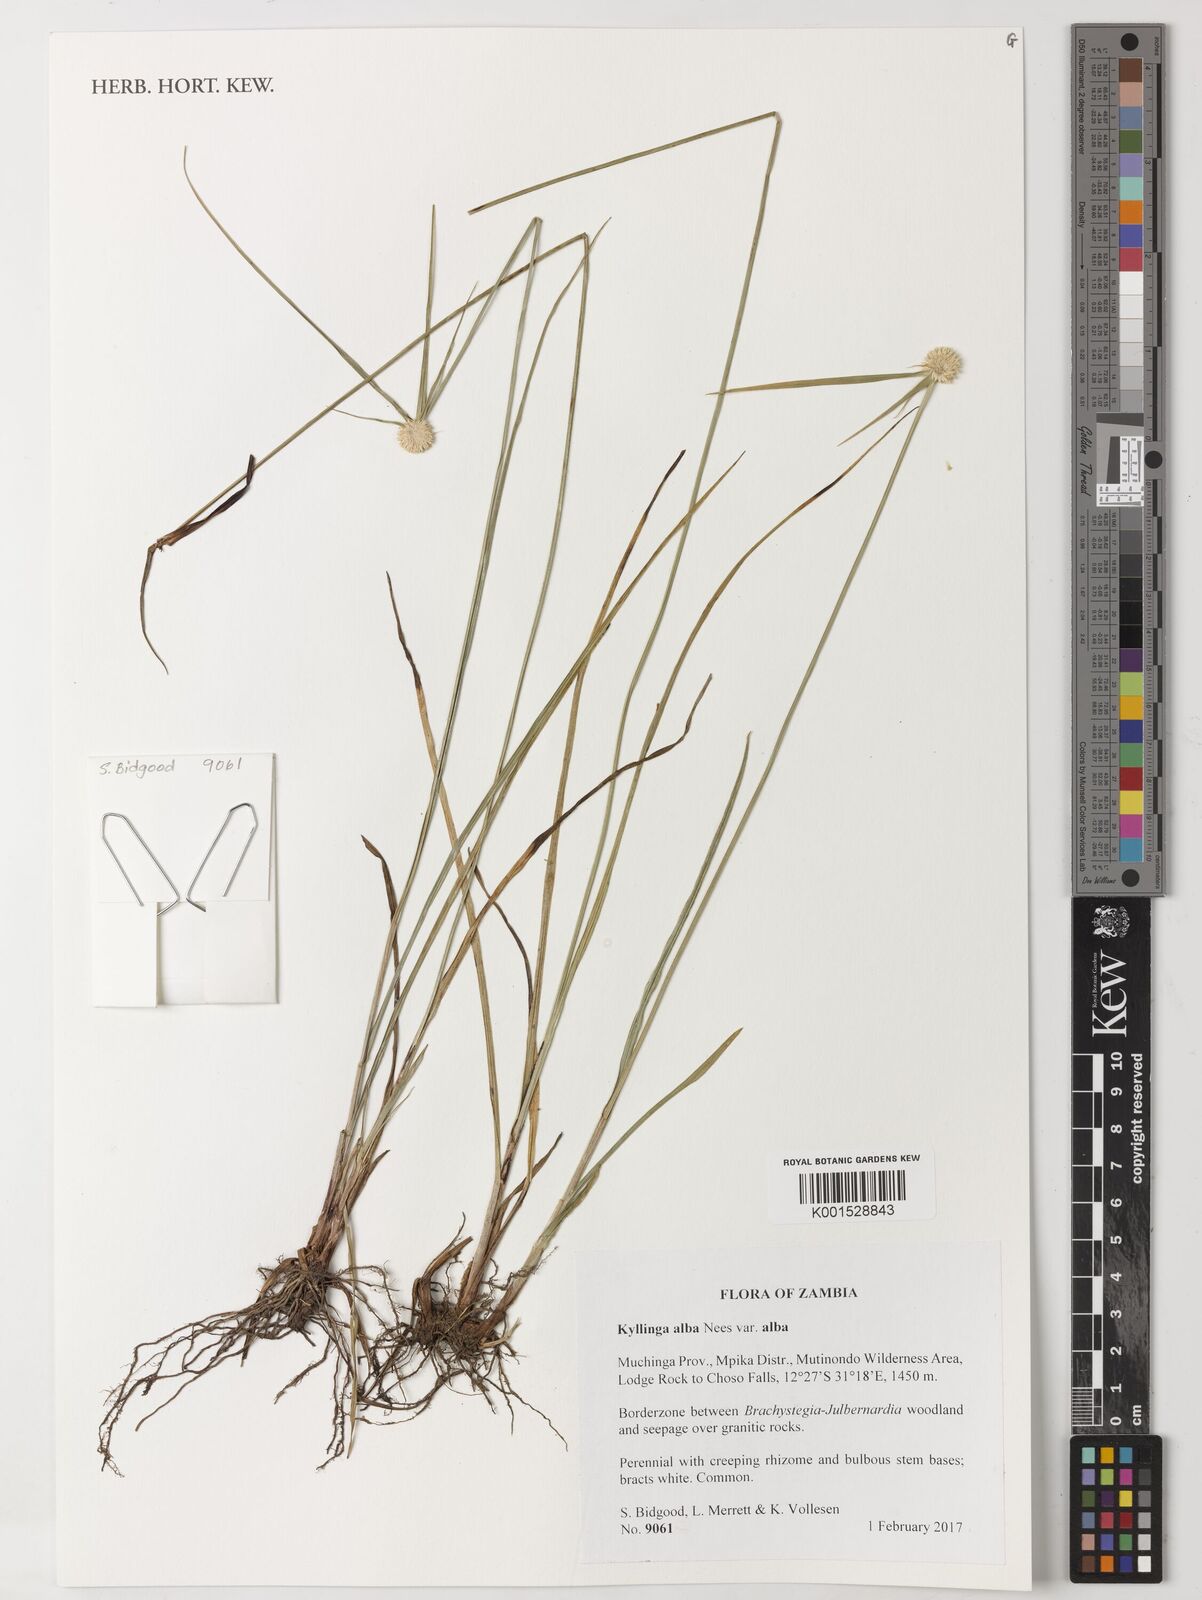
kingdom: Plantae
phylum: Tracheophyta
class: Liliopsida
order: Poales
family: Cyperaceae
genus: Cyperus
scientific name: Cyperus alatus
